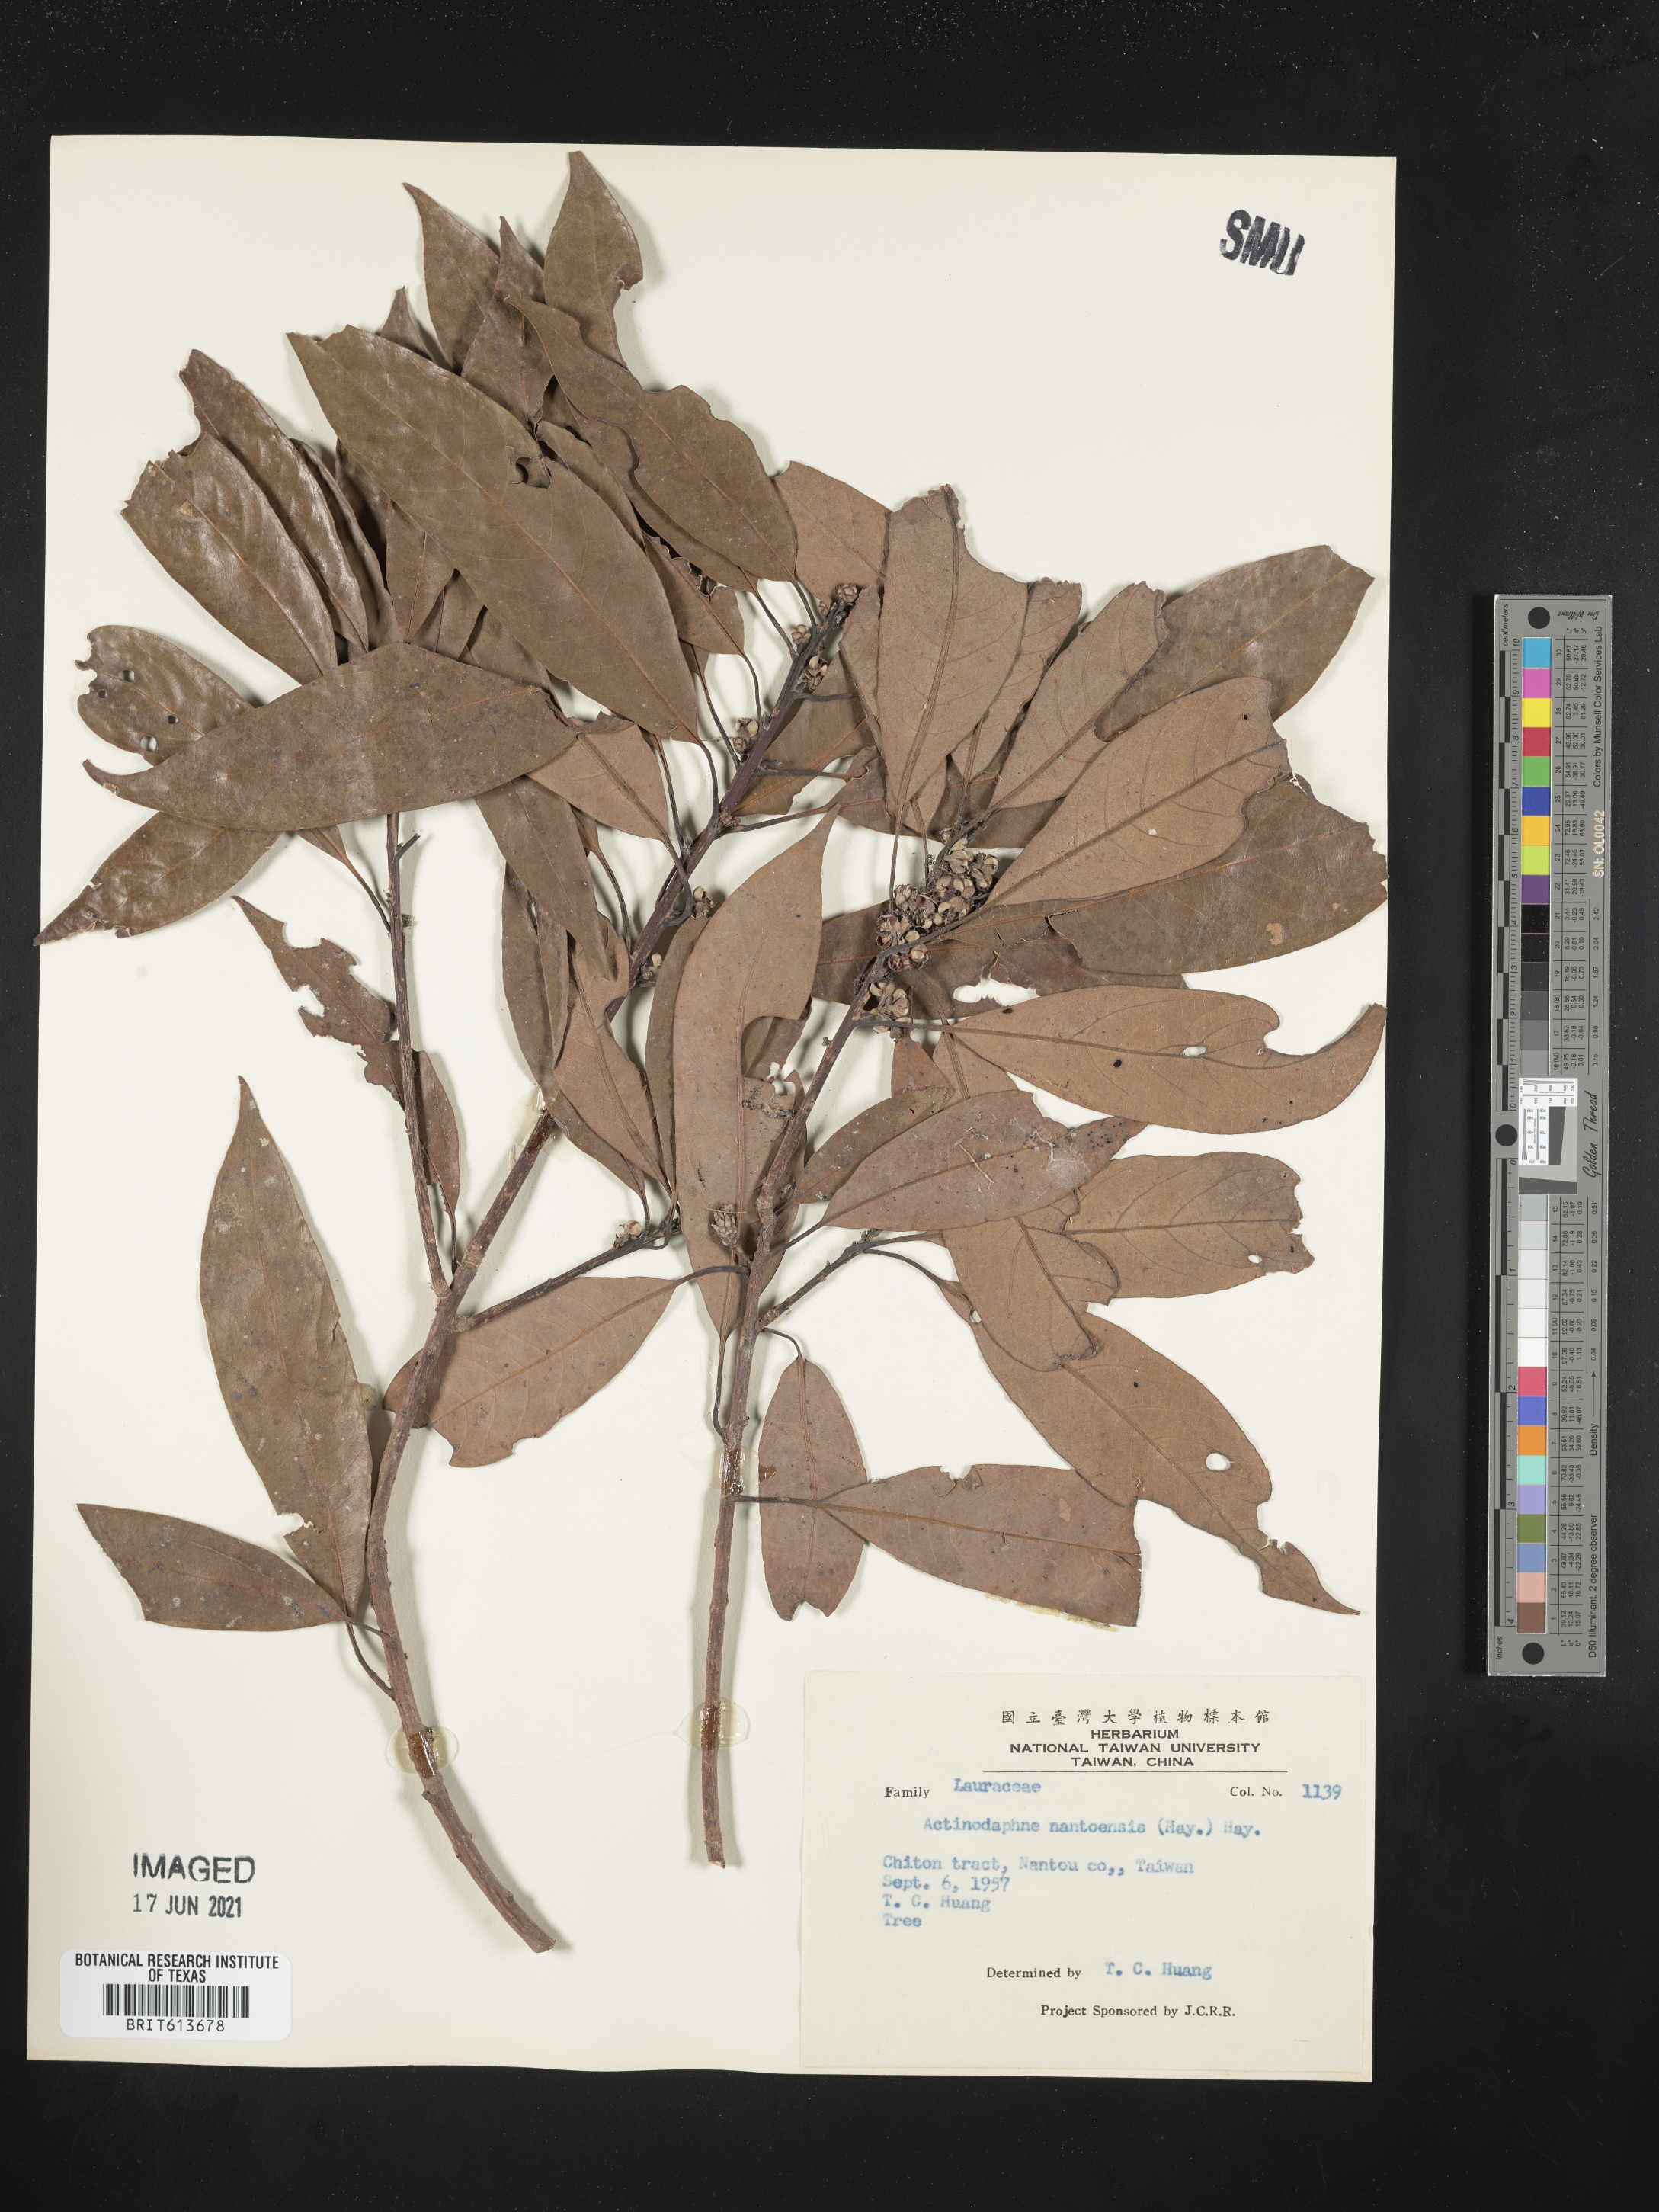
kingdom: Plantae
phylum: Tracheophyta
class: Magnoliopsida
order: Laurales
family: Lauraceae
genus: Actinodaphne
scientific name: Actinodaphne acuminata
